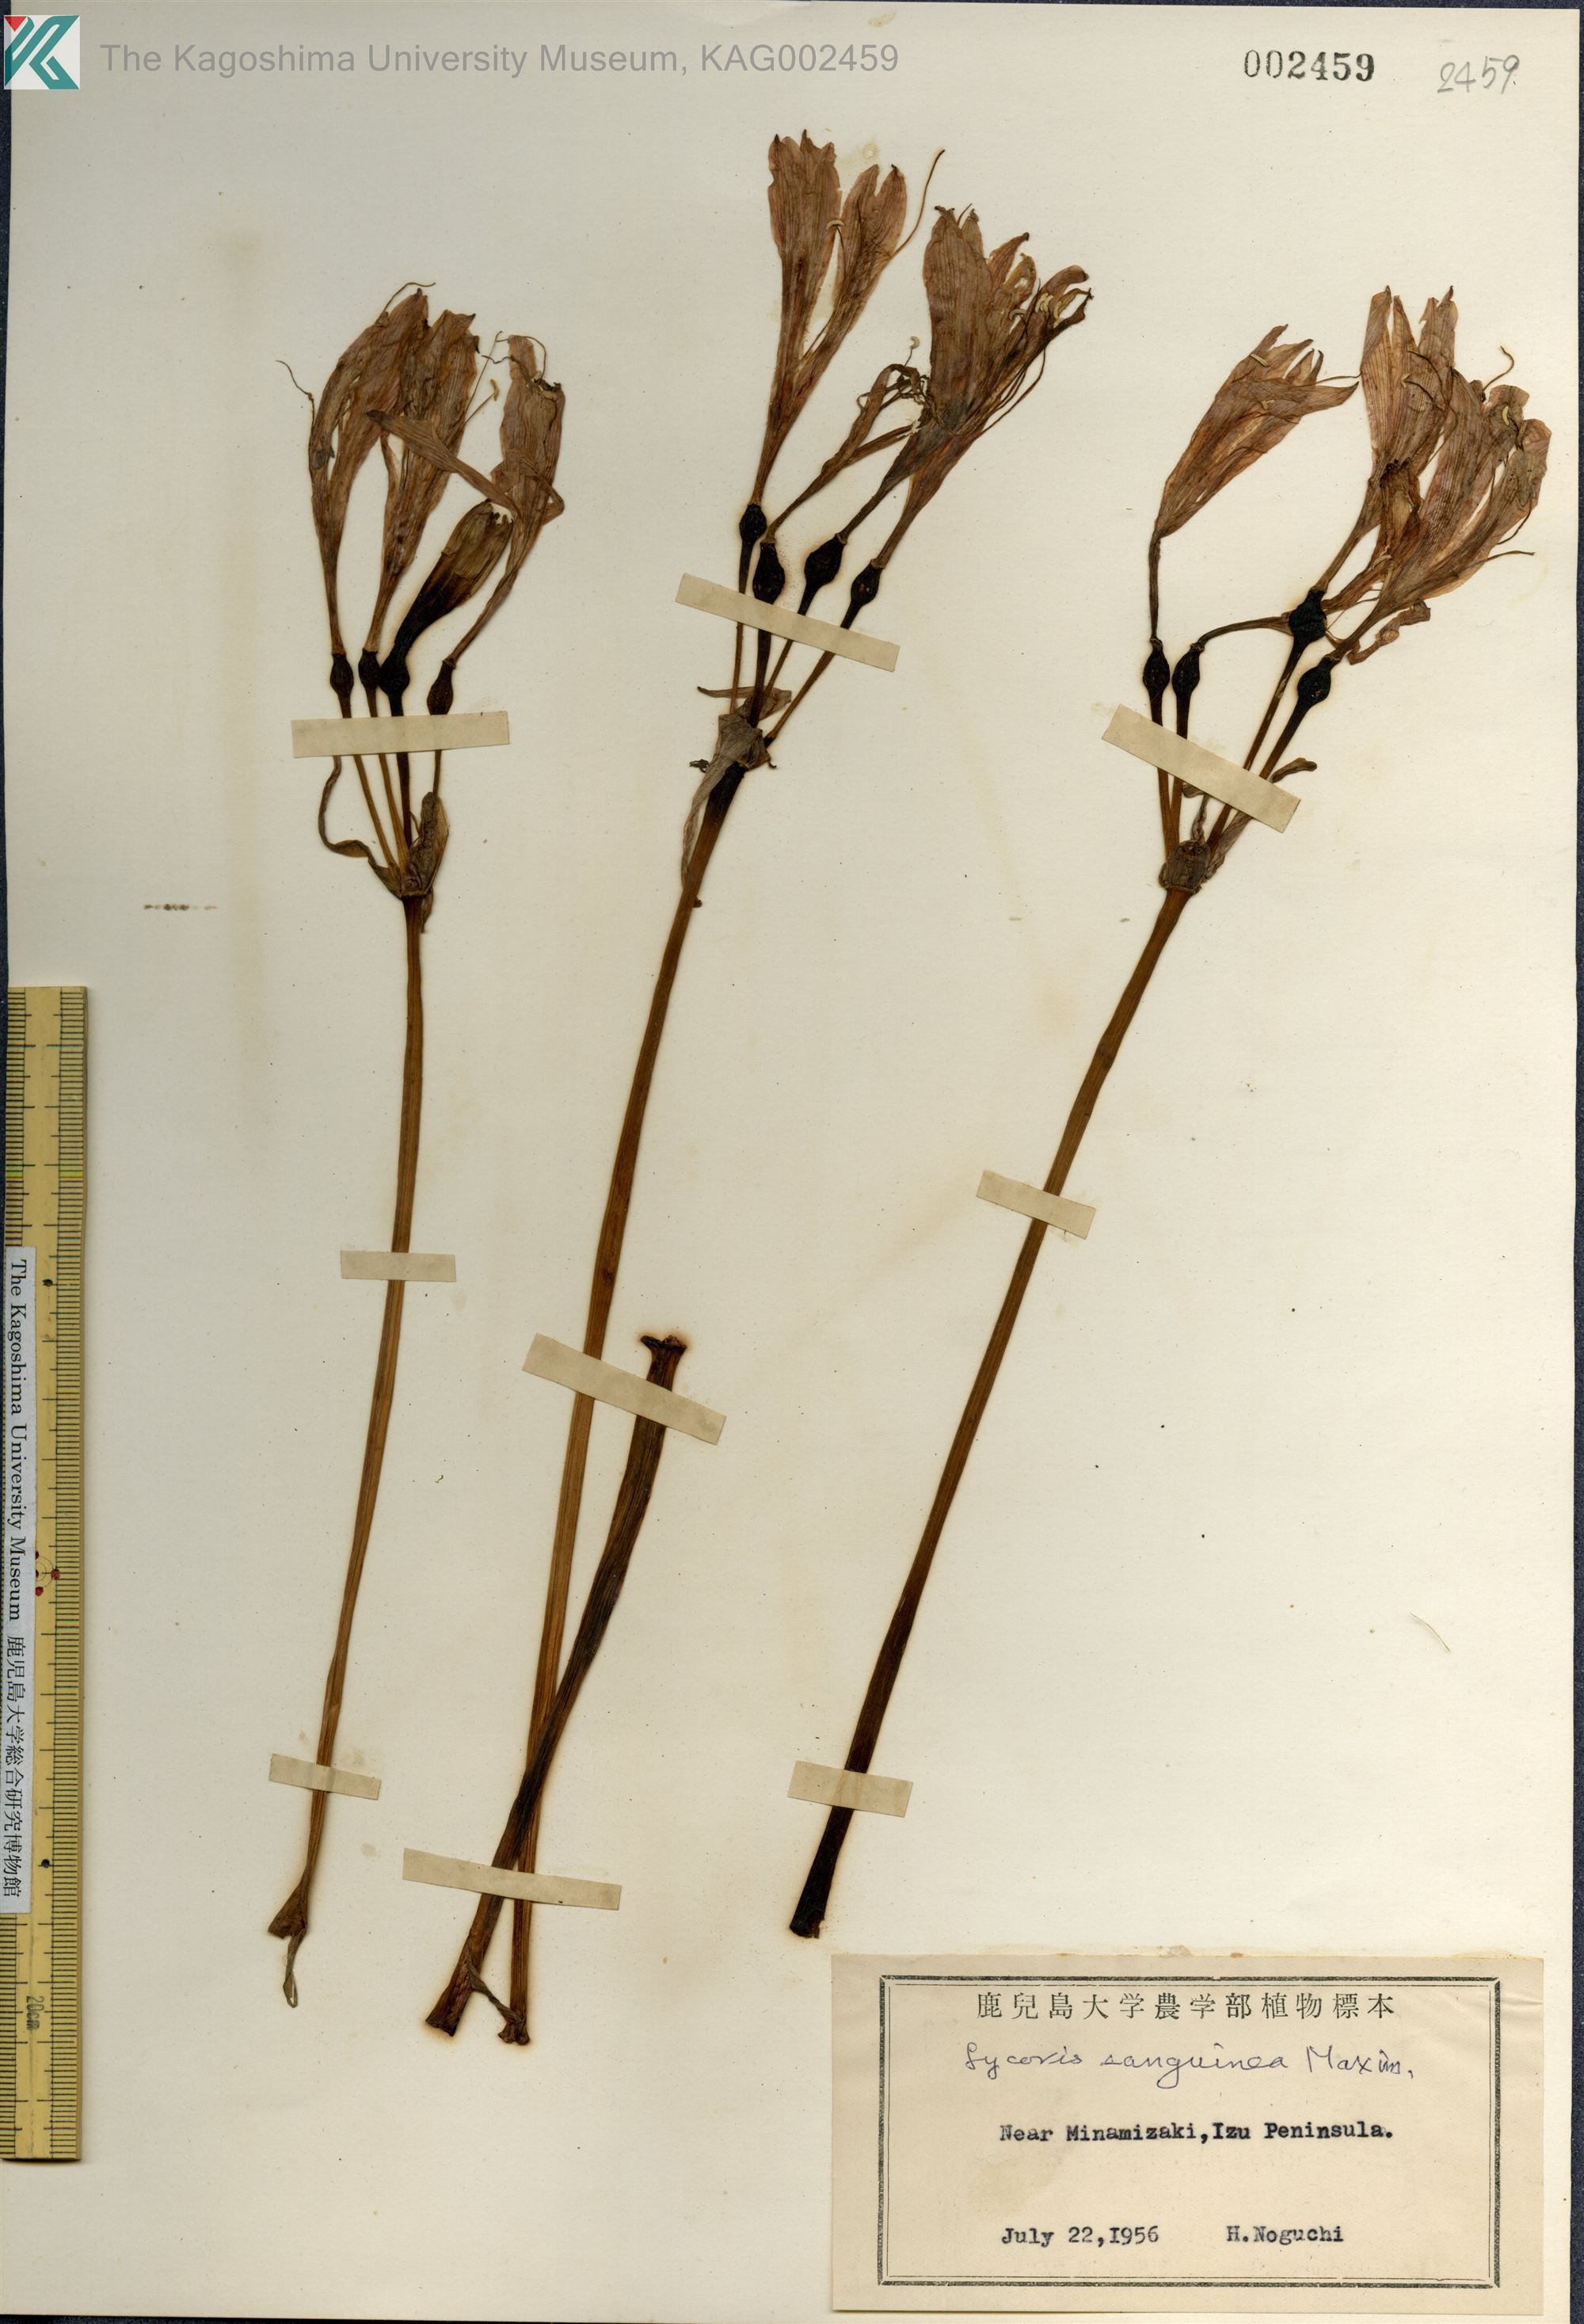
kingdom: Plantae
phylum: Tracheophyta
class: Liliopsida
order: Asparagales
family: Amaryllidaceae
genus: Lycoris
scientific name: Lycoris sanguinea
